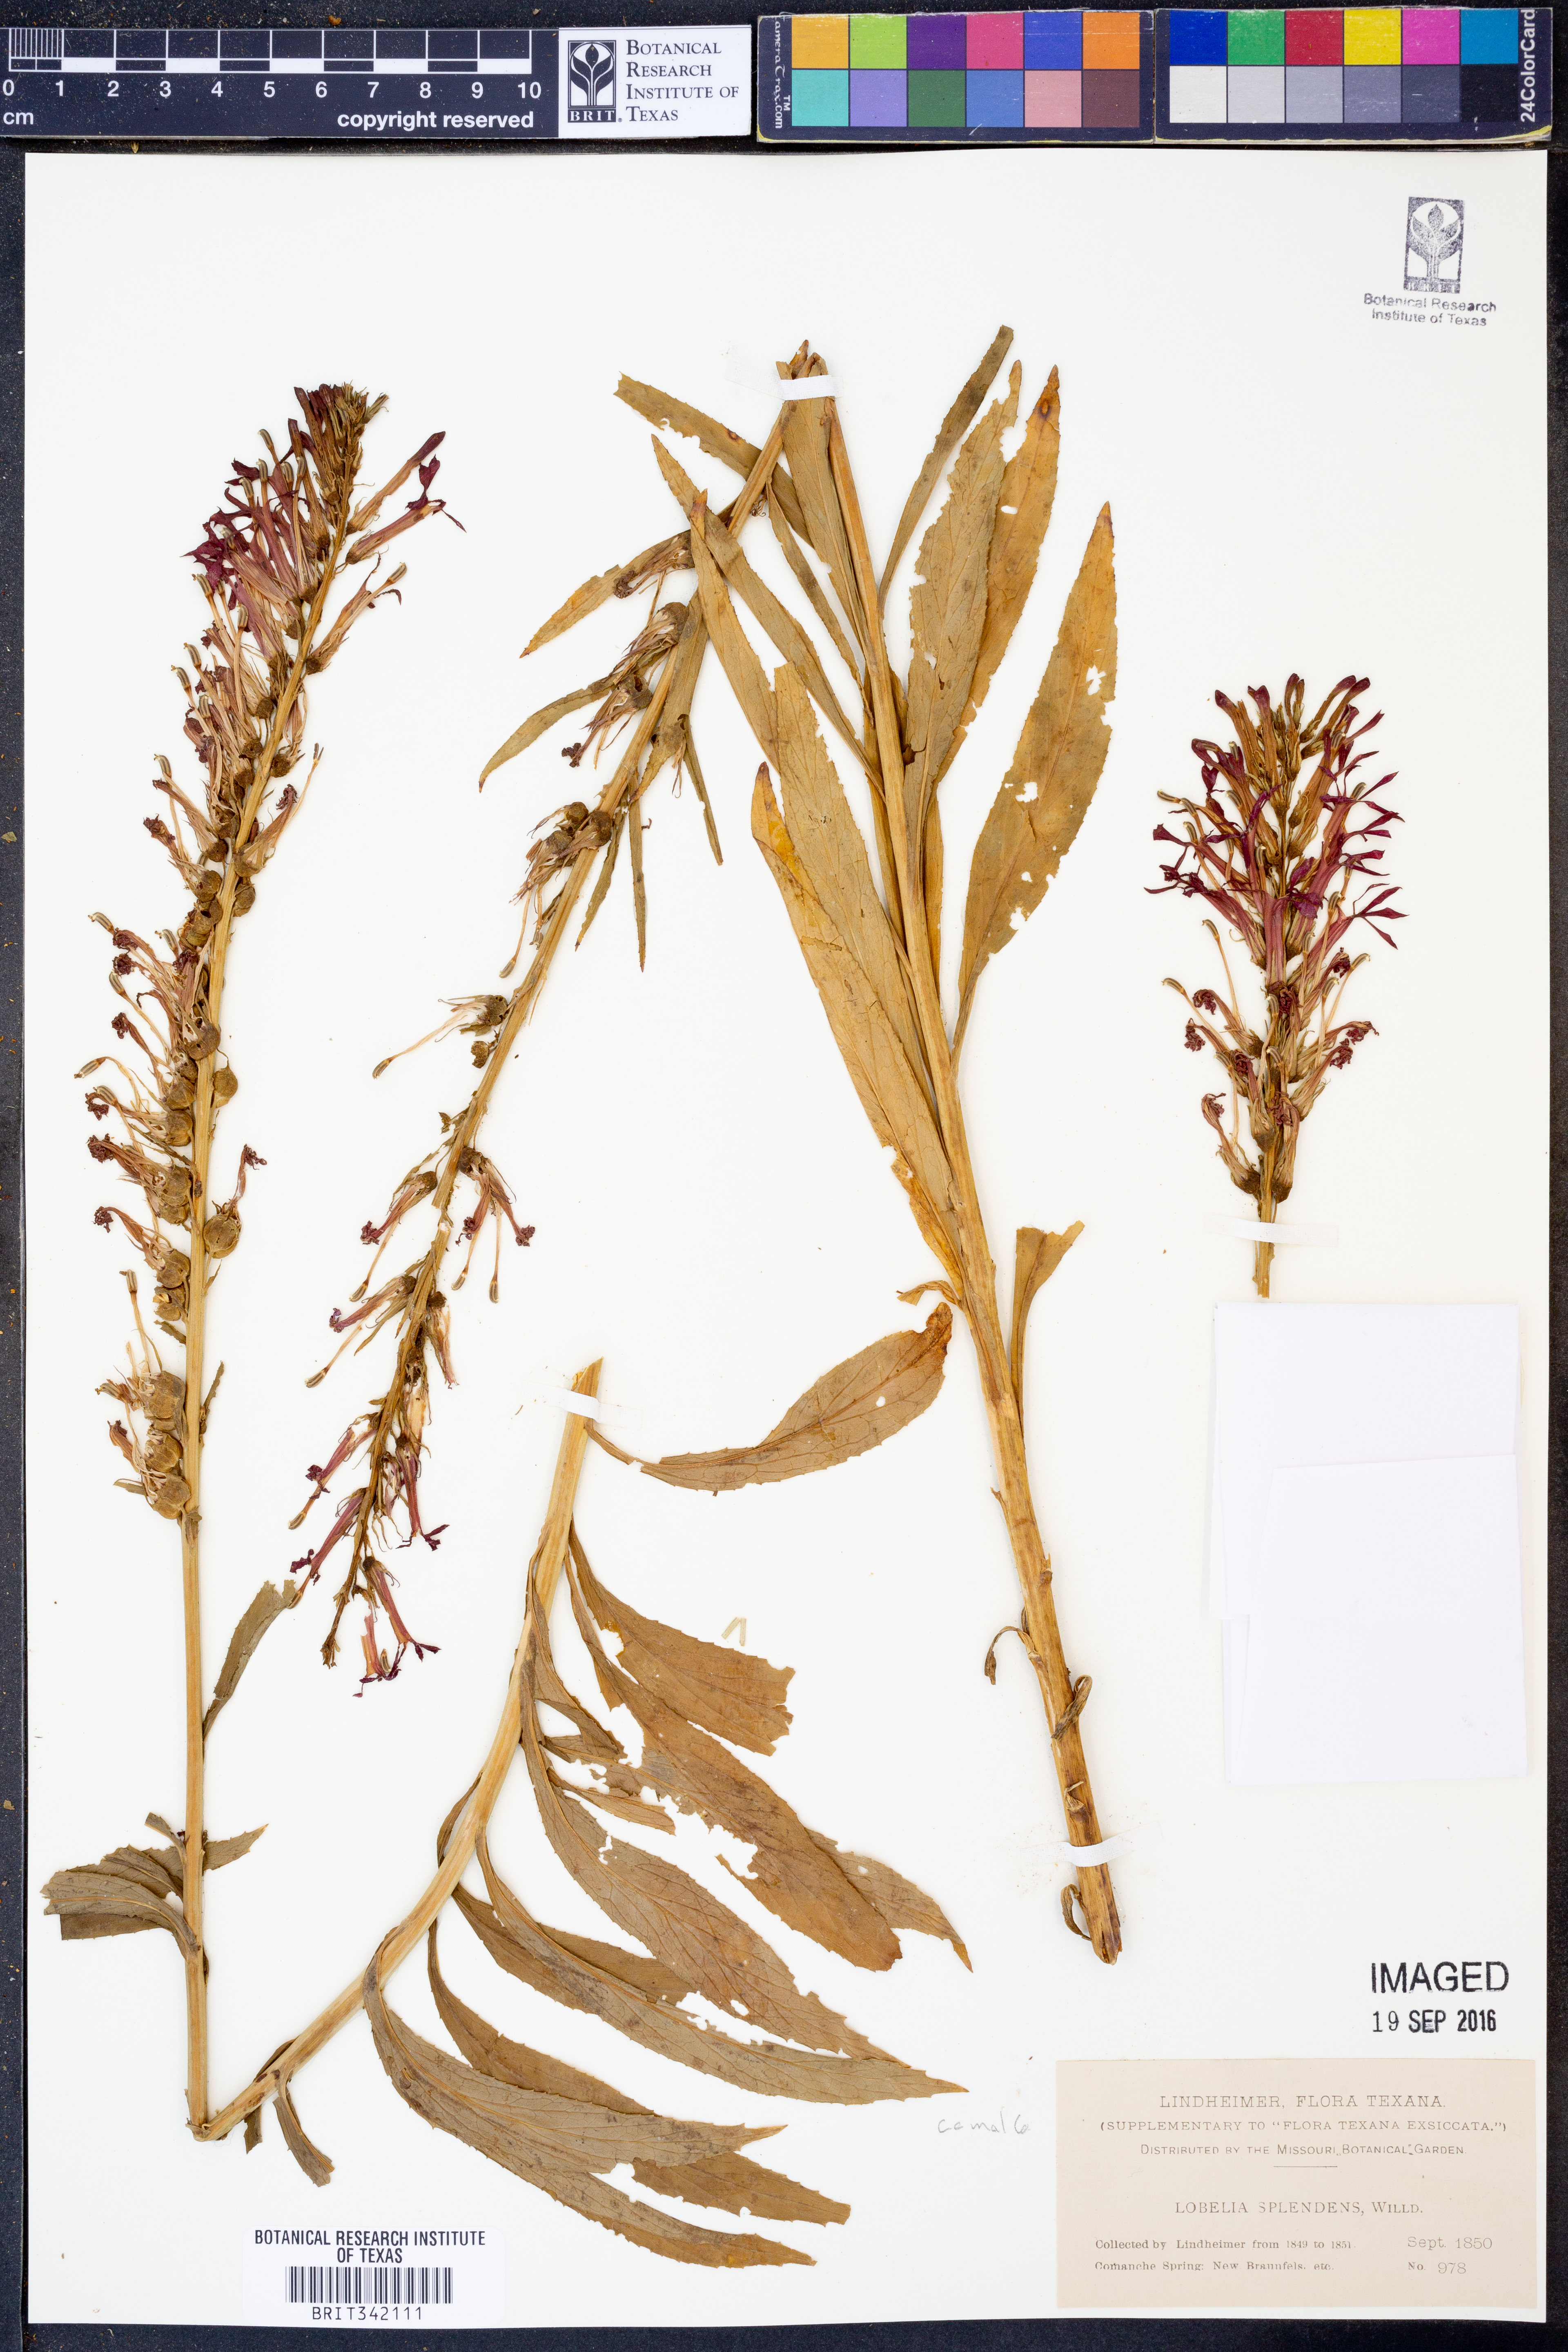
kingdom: Plantae
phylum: Tracheophyta
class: Magnoliopsida
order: Asterales
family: Campanulaceae
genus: Lobelia
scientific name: Lobelia cardinalis
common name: Cardinal flower
